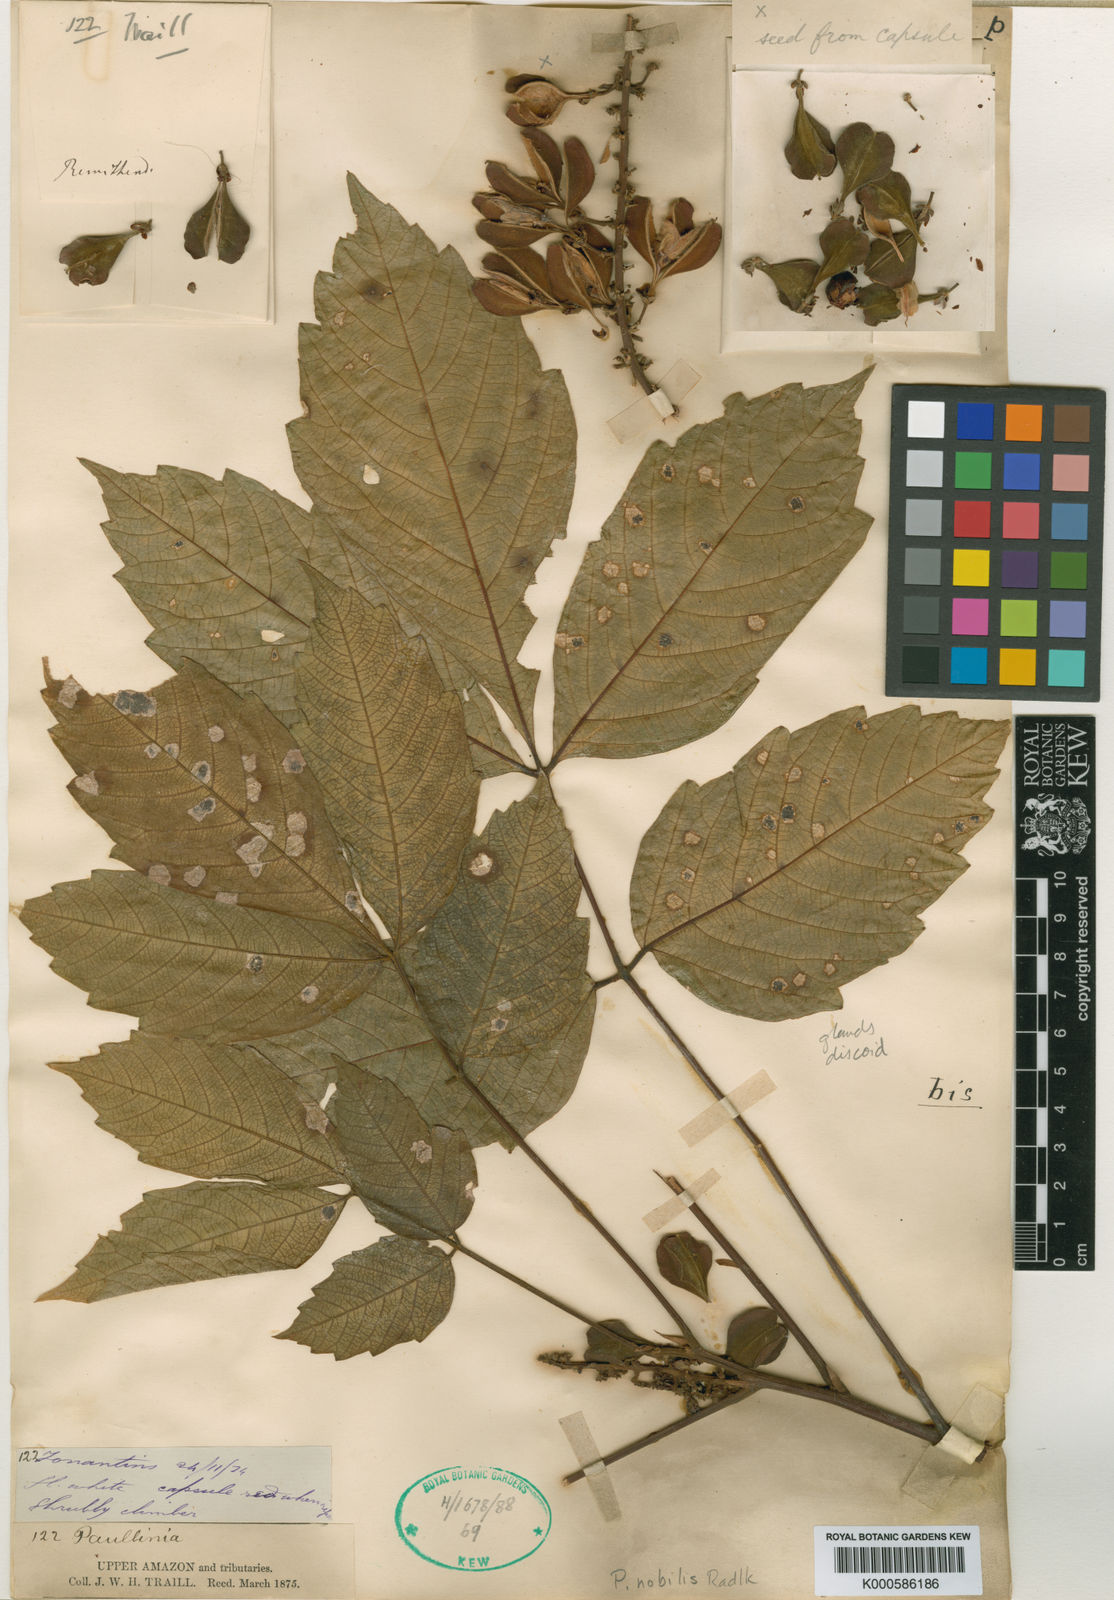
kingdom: Plantae
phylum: Tracheophyta
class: Magnoliopsida
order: Sapindales
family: Sapindaceae
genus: Paullinia
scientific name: Paullinia nobilis
